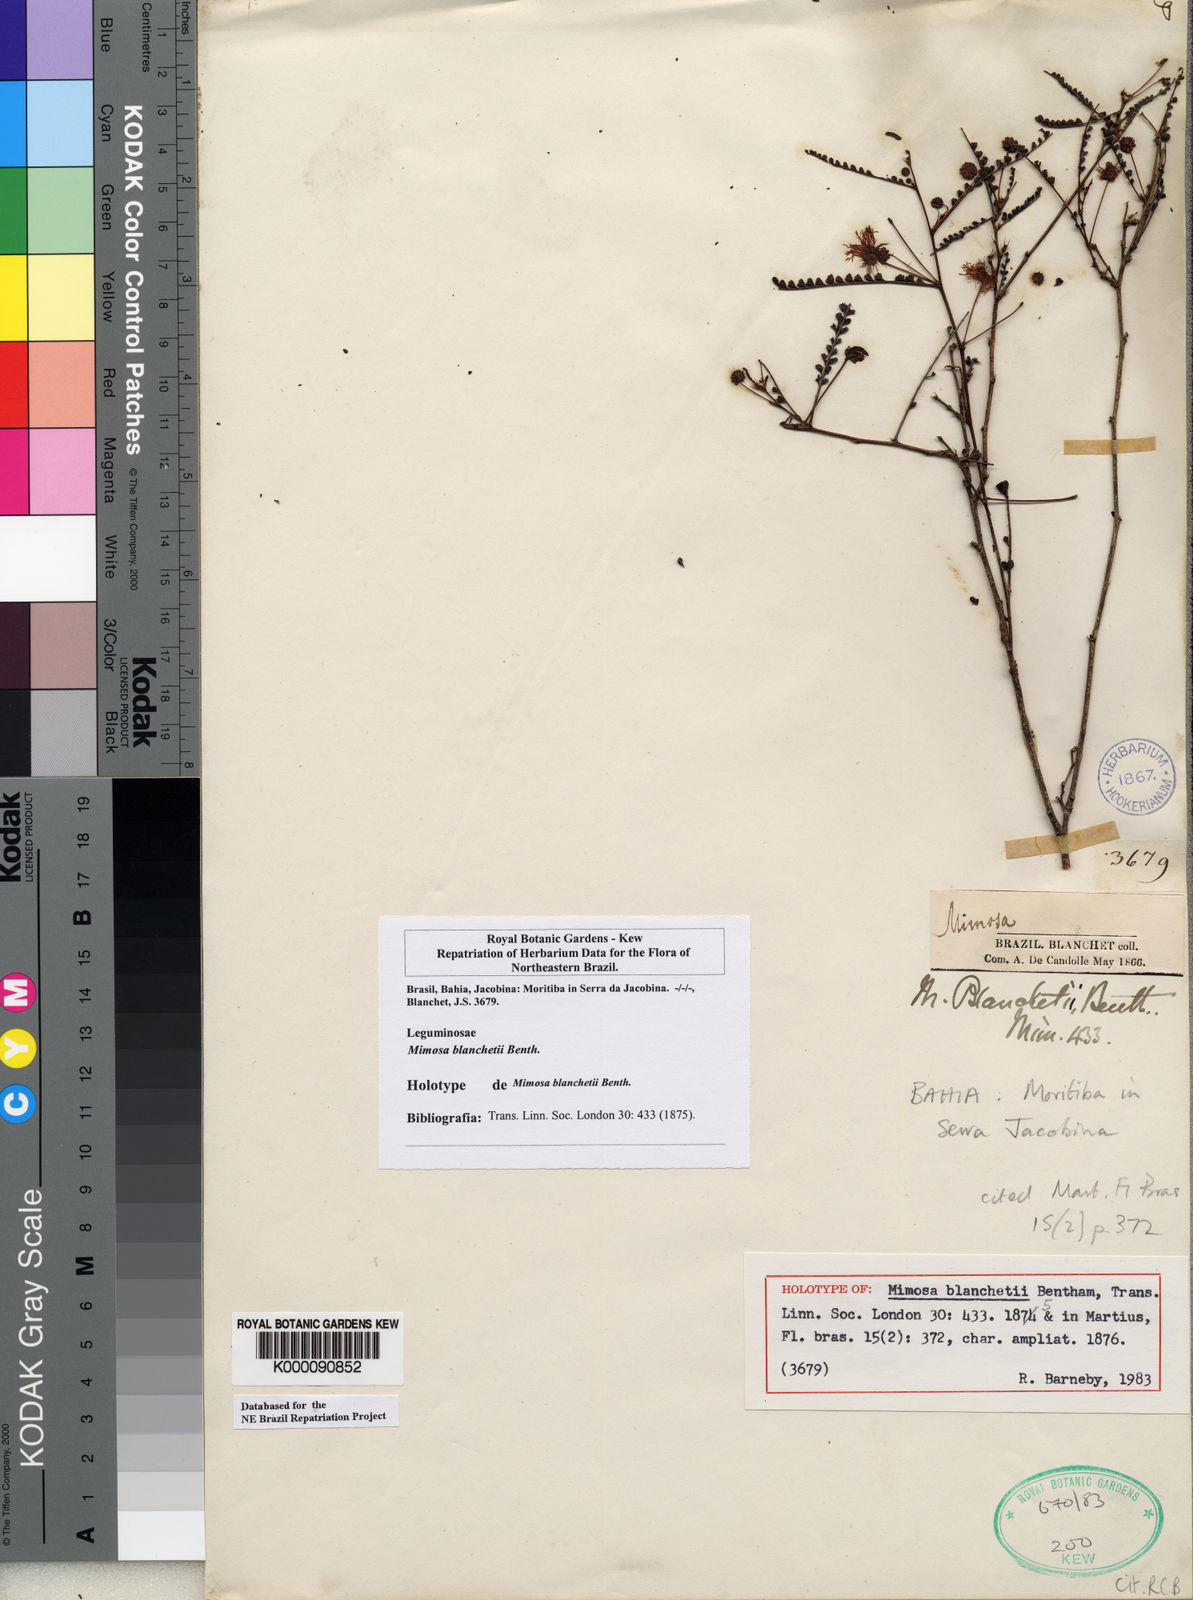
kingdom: Plantae
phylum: Tracheophyta
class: Magnoliopsida
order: Fabales
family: Fabaceae
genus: Mimosa
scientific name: Mimosa blanchetii
